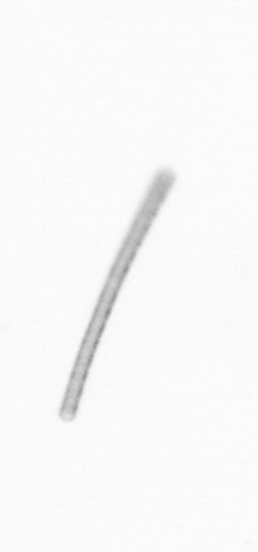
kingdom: Chromista
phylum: Ochrophyta
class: Bacillariophyceae
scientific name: Bacillariophyceae
